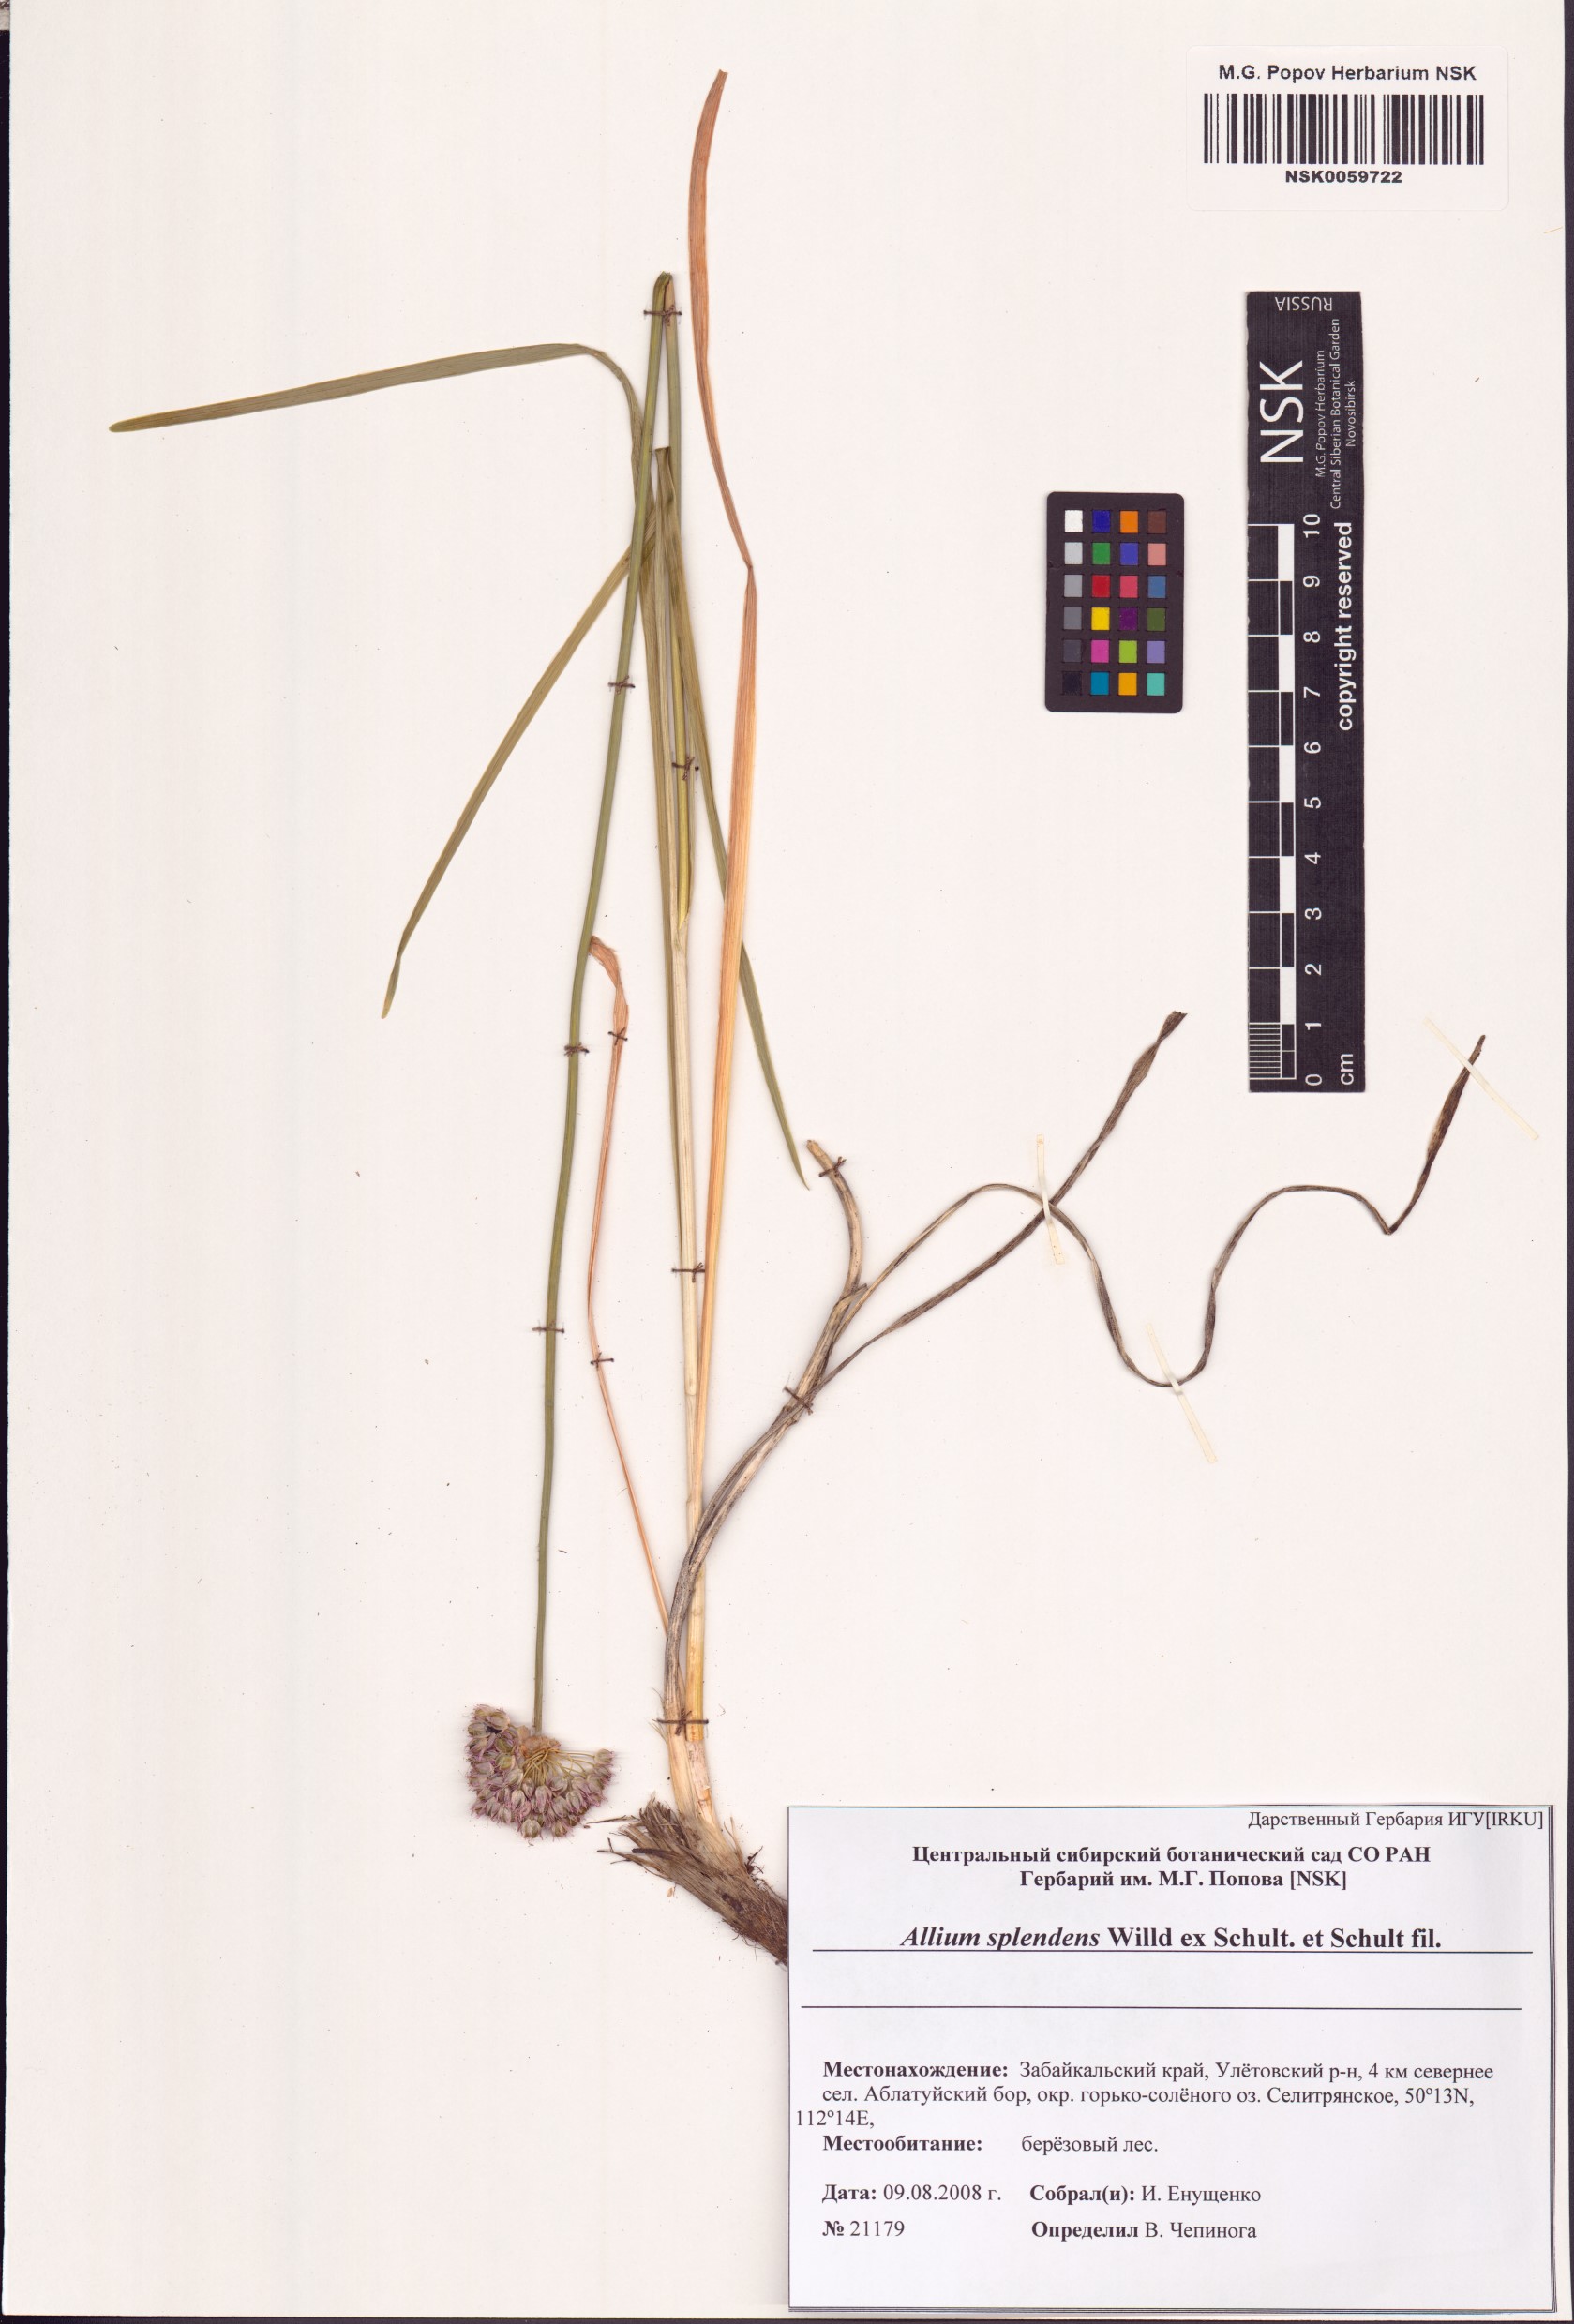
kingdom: Plantae
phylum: Tracheophyta
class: Liliopsida
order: Asparagales
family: Amaryllidaceae
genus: Allium
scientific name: Allium splendens
